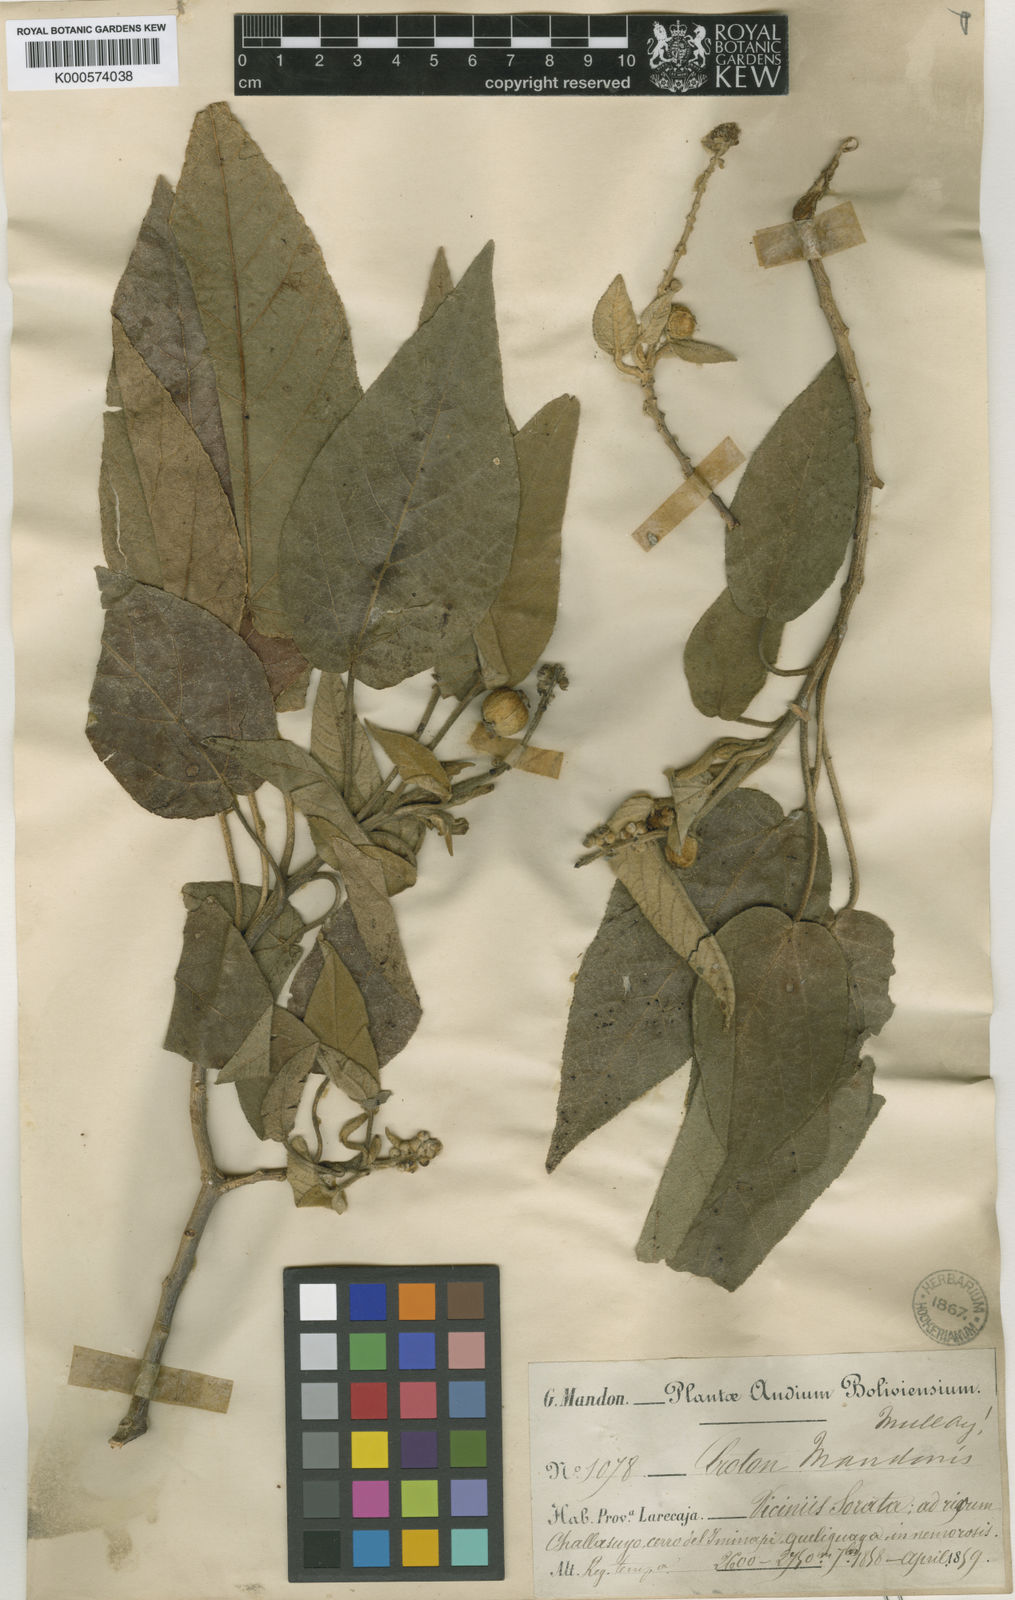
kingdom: Plantae
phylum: Tracheophyta
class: Magnoliopsida
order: Malpighiales
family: Euphorbiaceae
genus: Croton
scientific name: Croton
